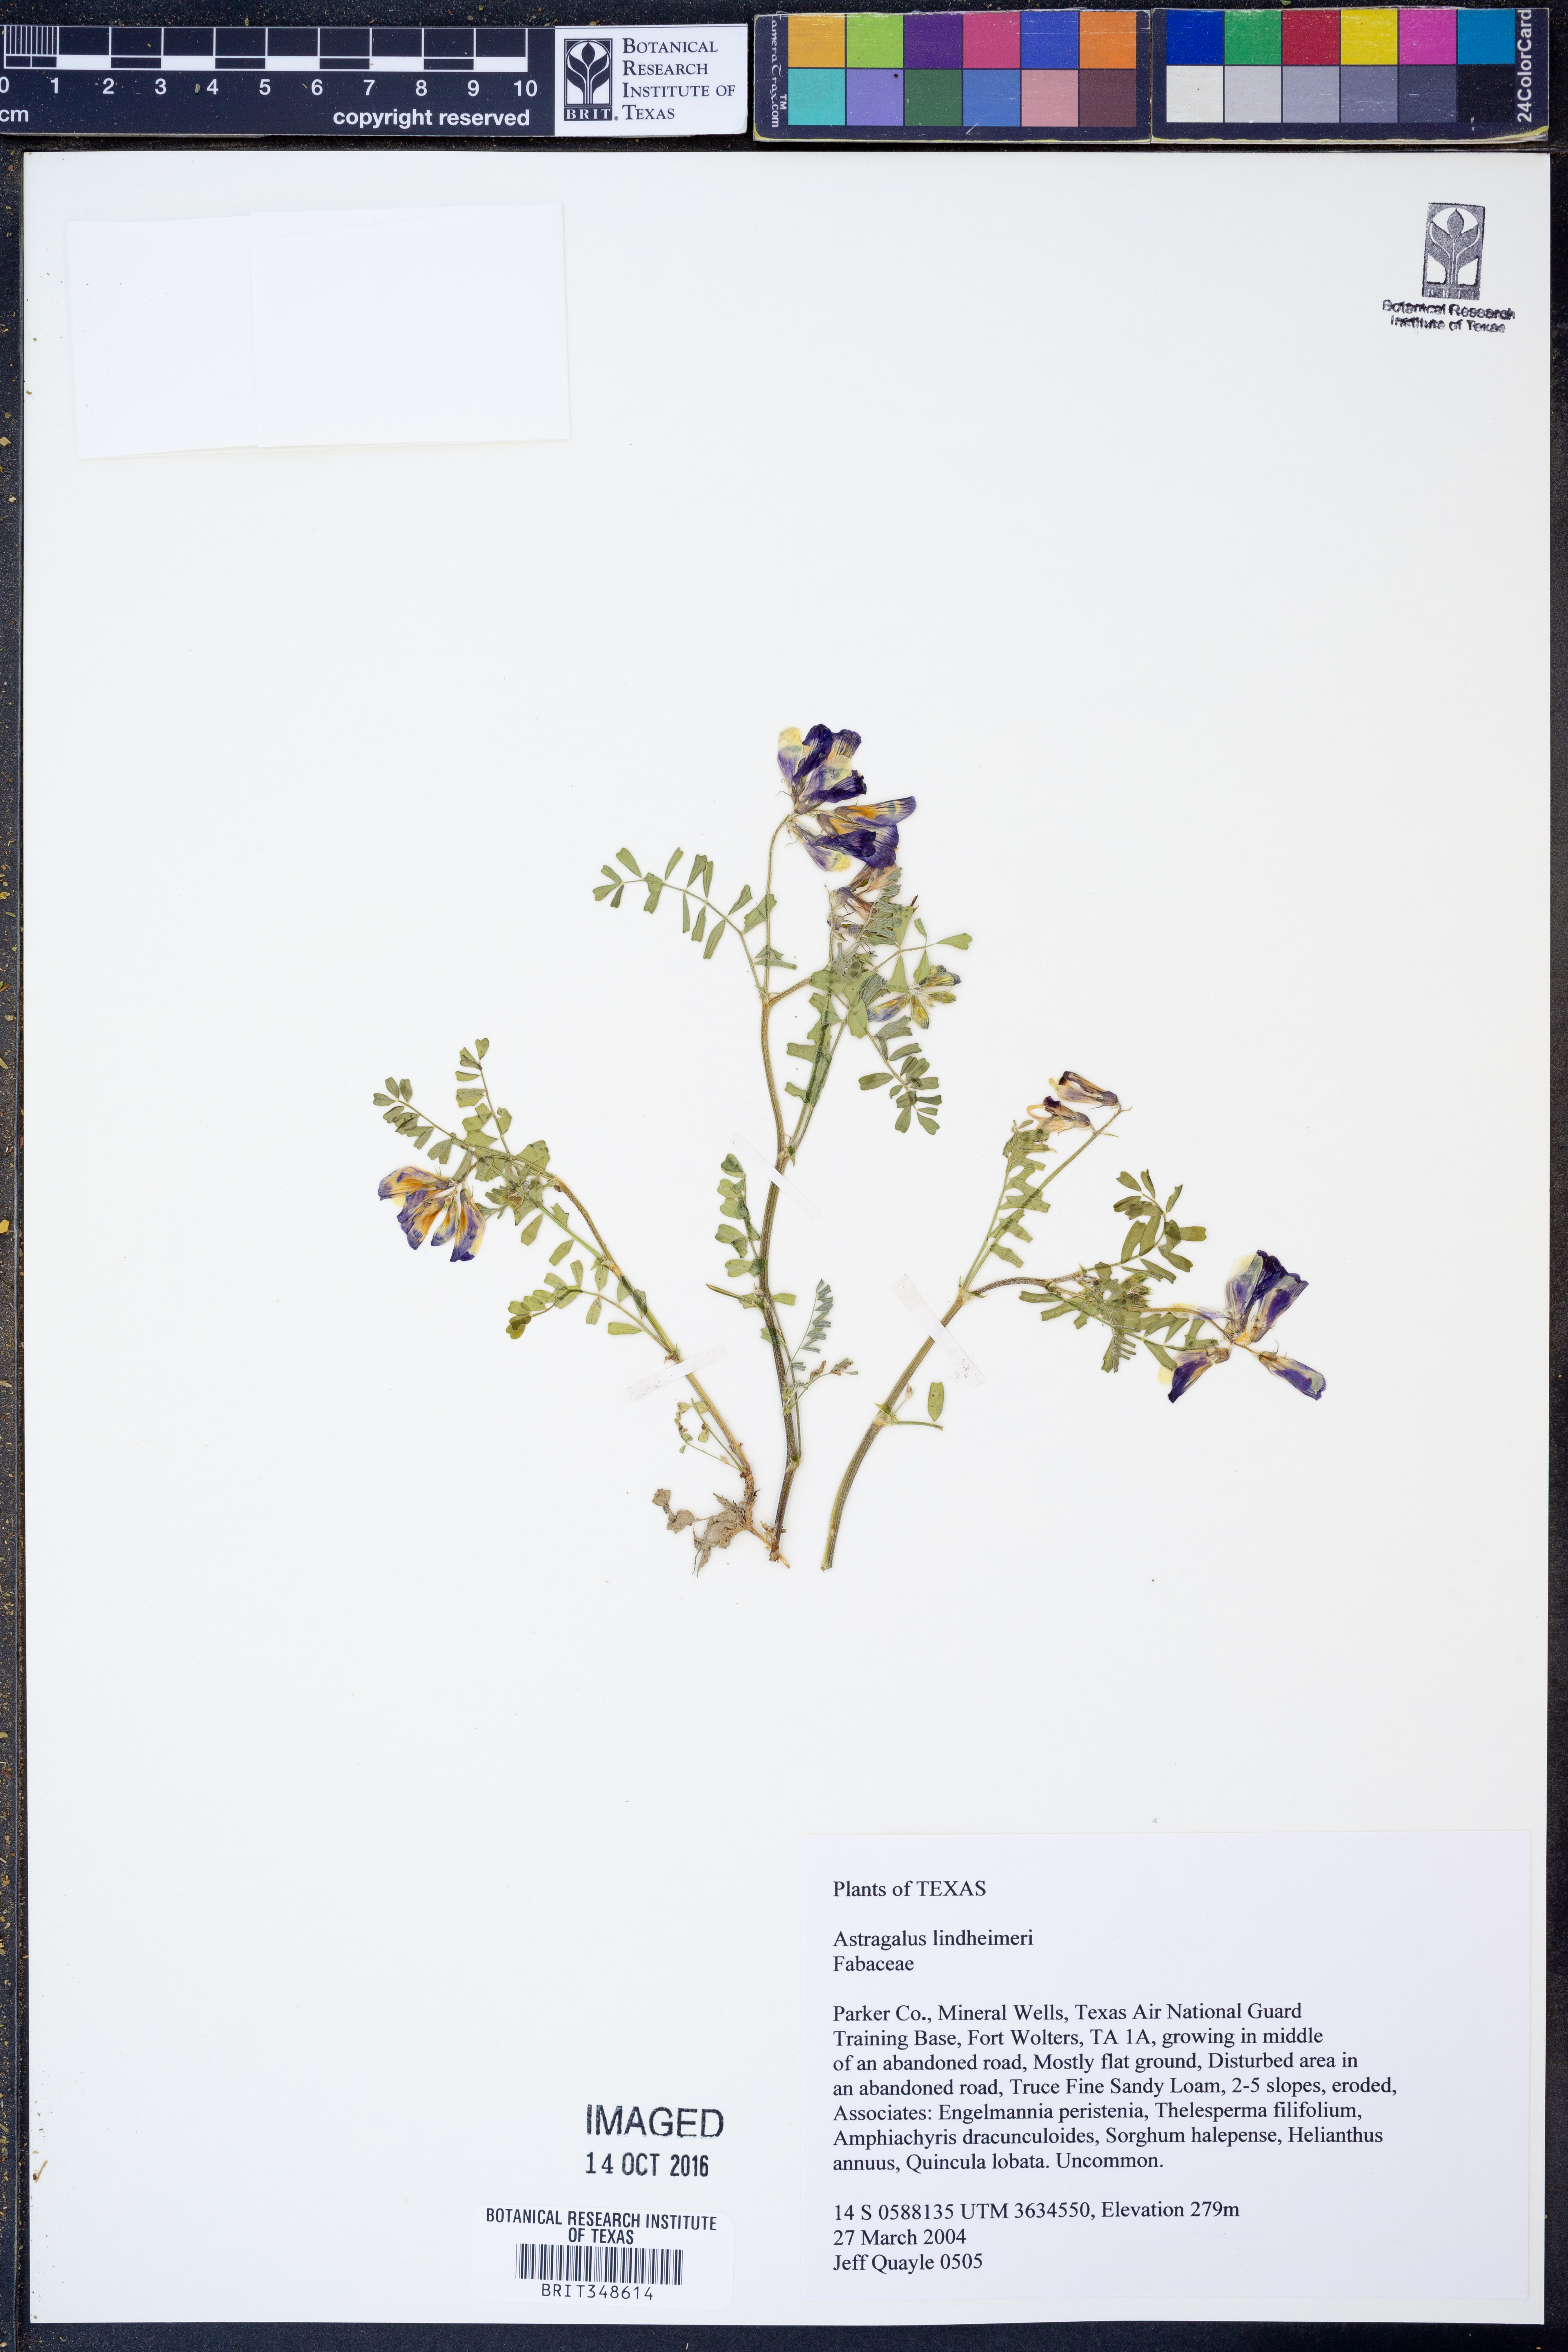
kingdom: Plantae
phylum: Tracheophyta
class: Magnoliopsida
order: Fabales
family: Fabaceae
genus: Astragalus
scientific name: Astragalus lindheimeri
